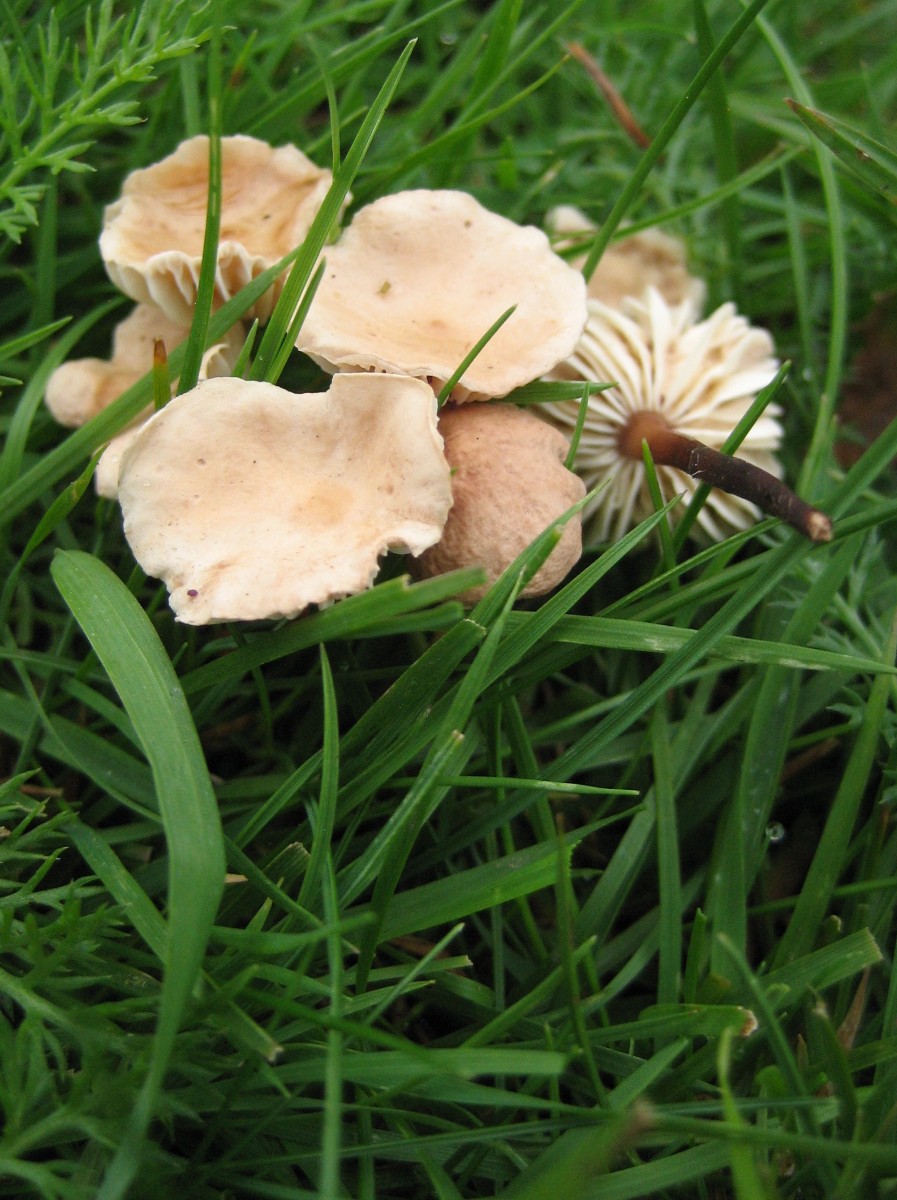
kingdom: Fungi
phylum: Basidiomycota
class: Agaricomycetes
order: Agaricales
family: Omphalotaceae
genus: Mycetinis
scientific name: Mycetinis scorodonius
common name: lille løghat
